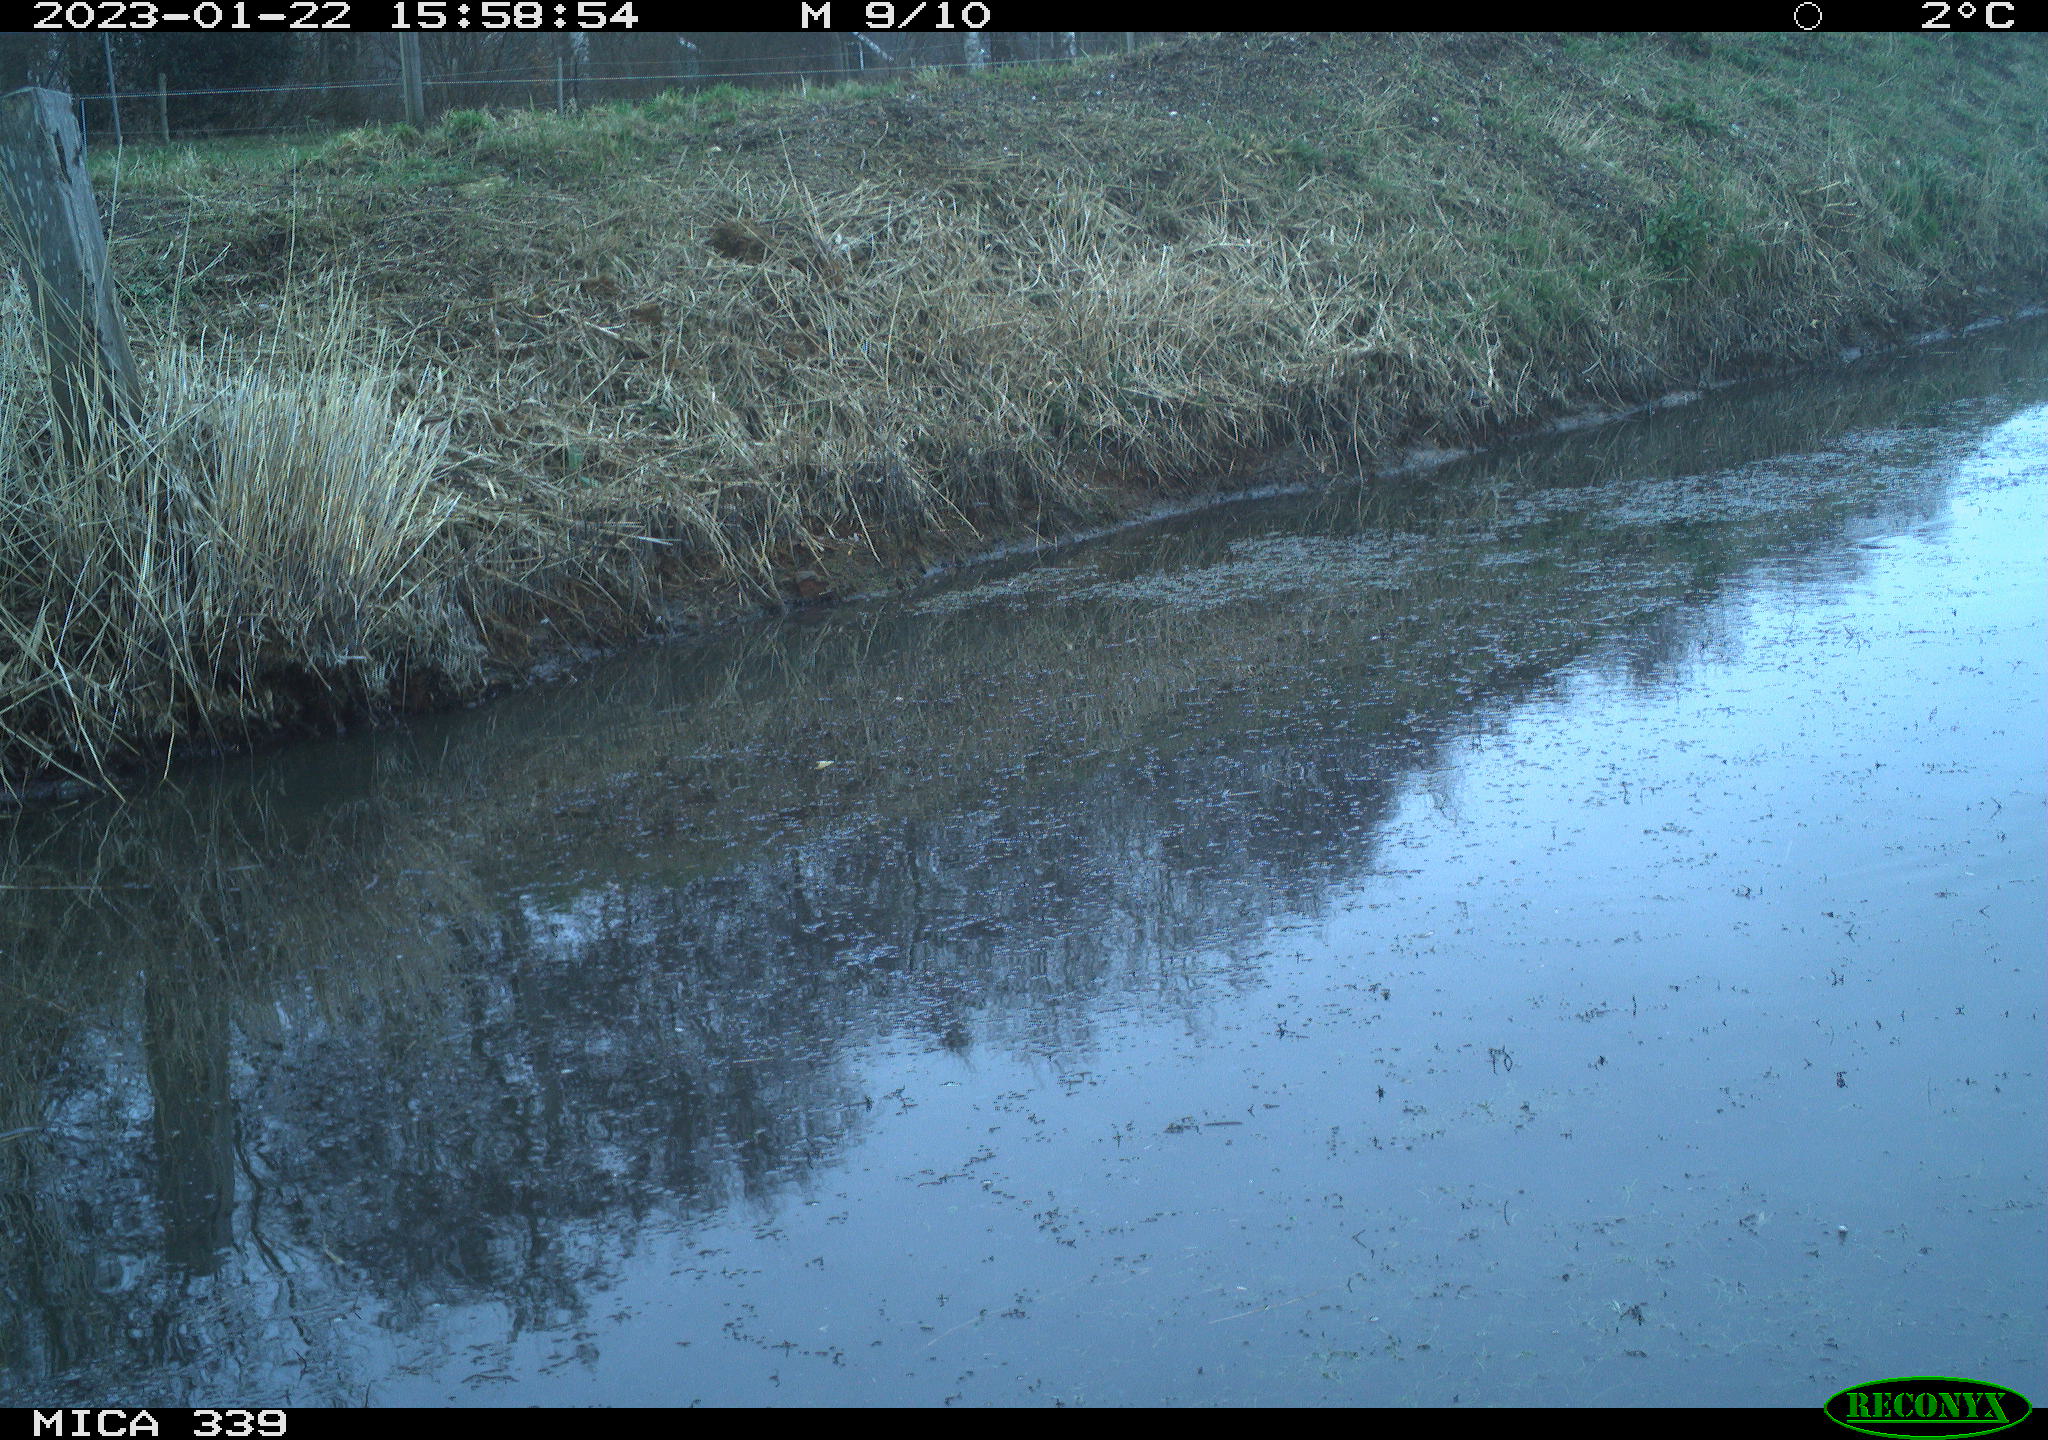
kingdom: Animalia
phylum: Chordata
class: Aves
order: Pelecaniformes
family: Ardeidae
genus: Ardea
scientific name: Ardea cinerea
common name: Grey heron
